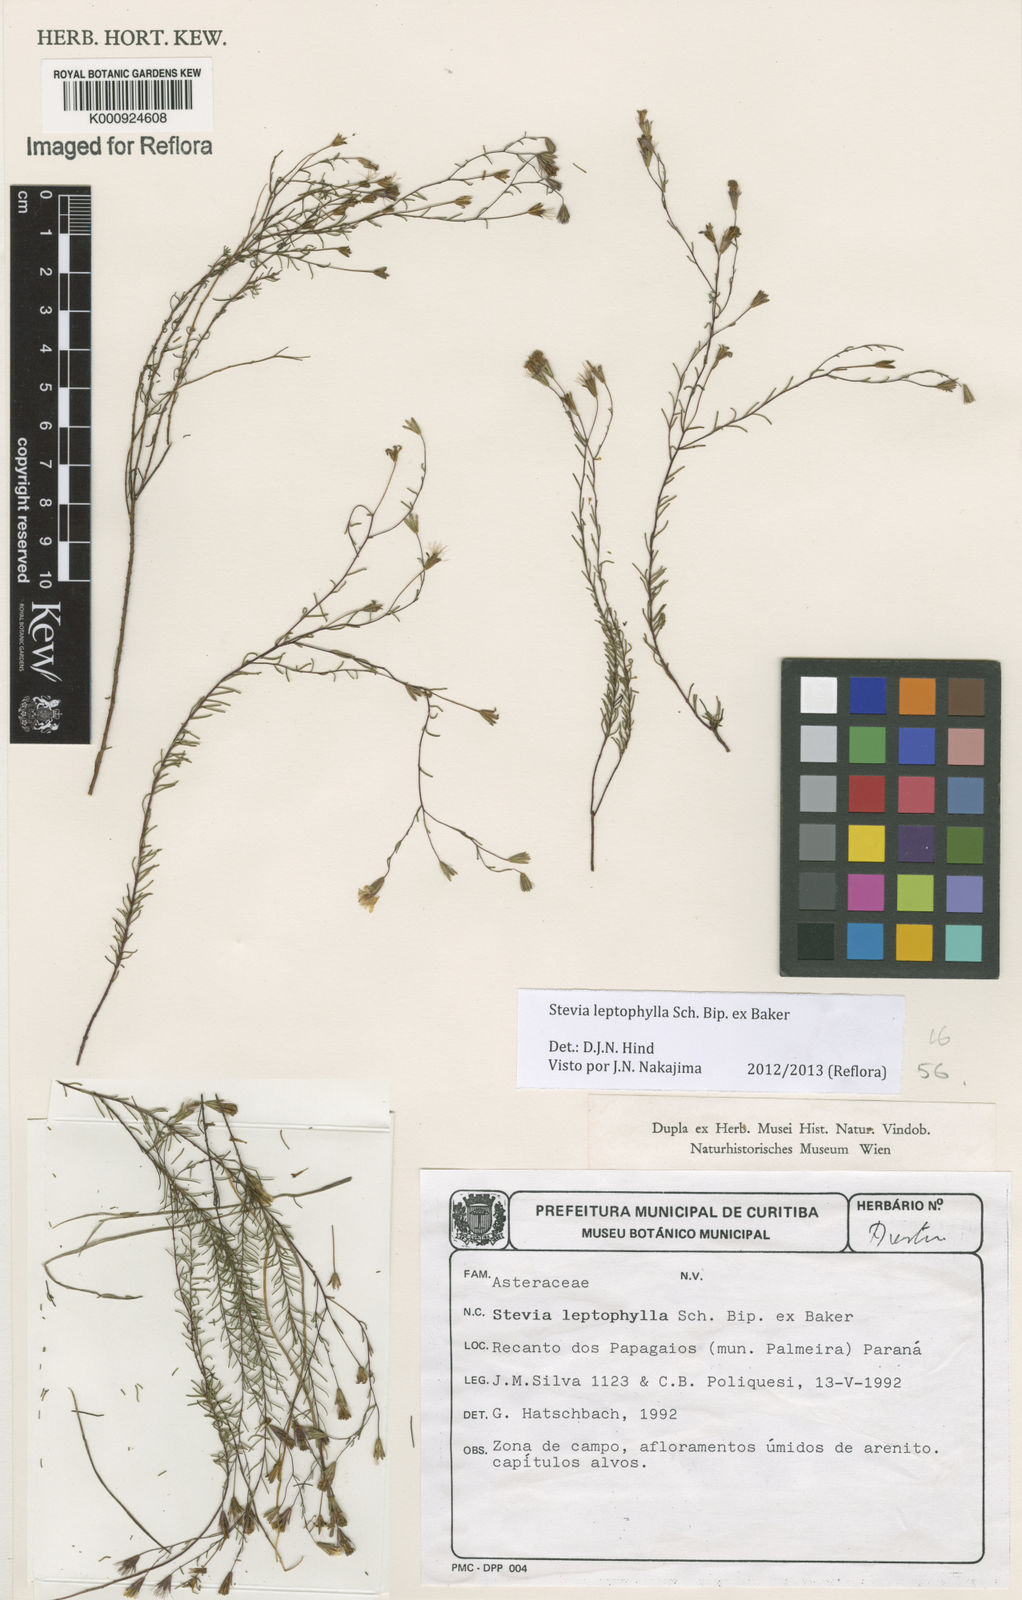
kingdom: Plantae
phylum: Tracheophyta
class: Magnoliopsida
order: Asterales
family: Asteraceae
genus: Stevia
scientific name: Stevia
